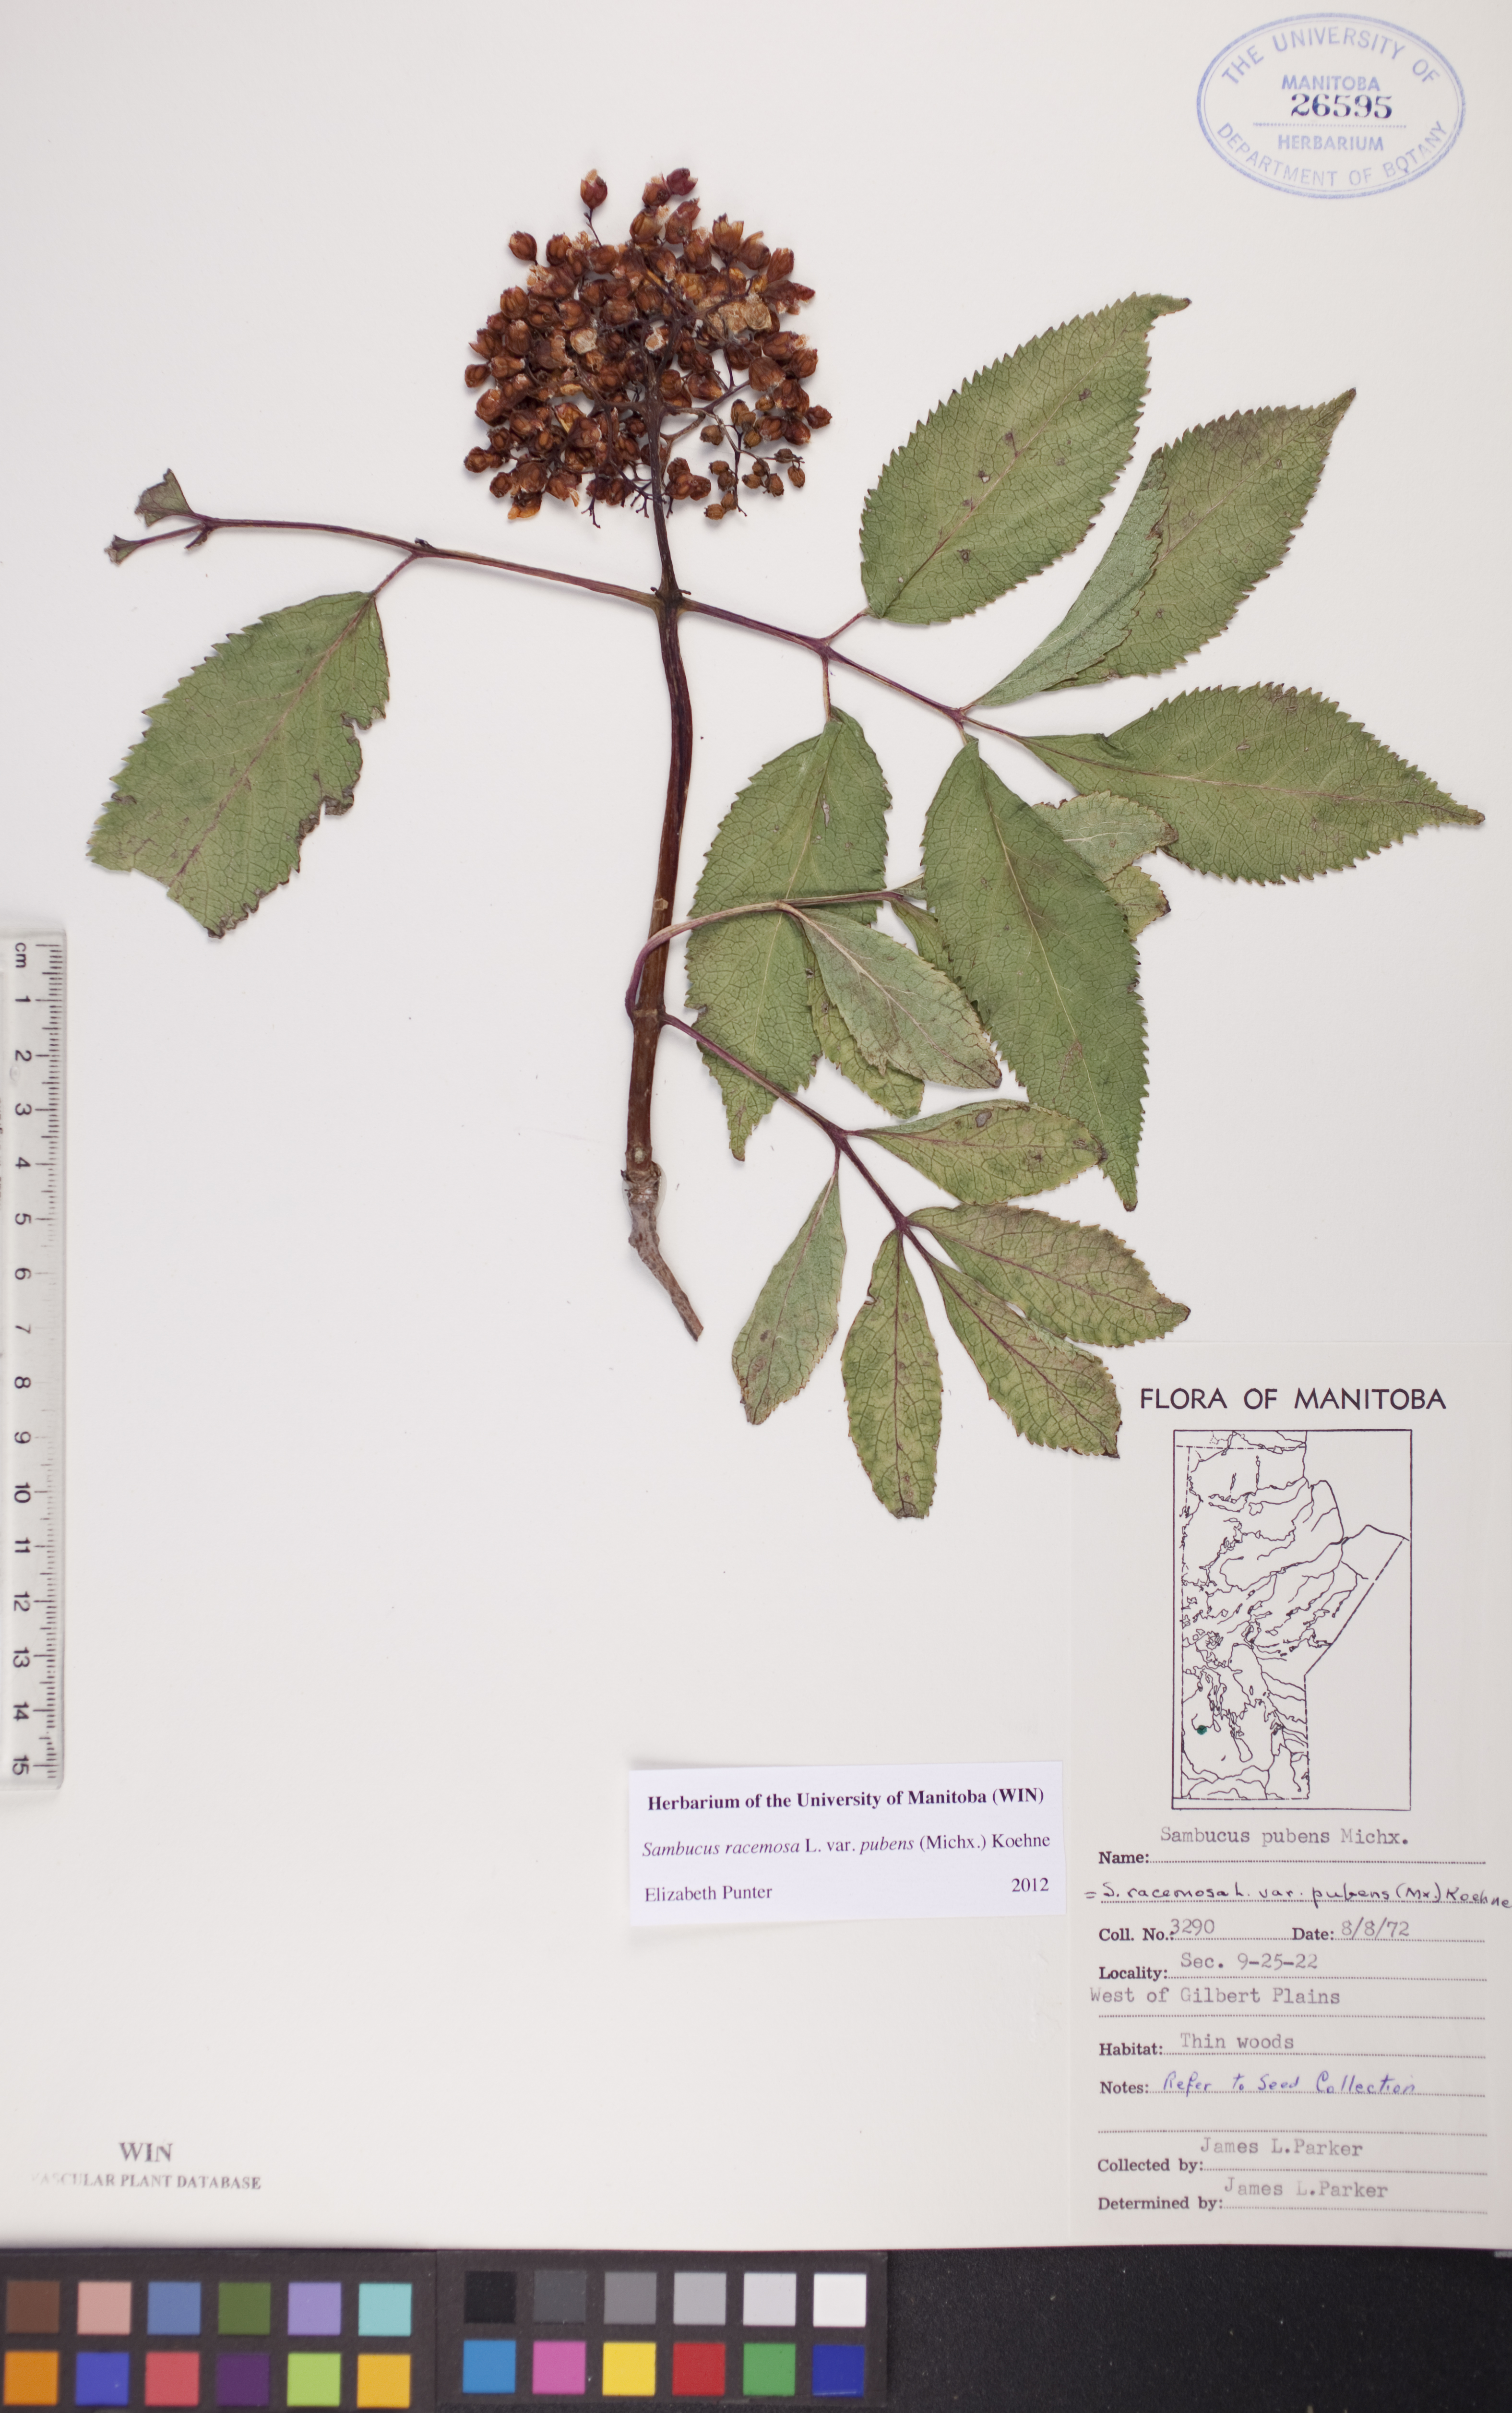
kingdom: Plantae
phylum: Tracheophyta
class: Magnoliopsida
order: Dipsacales
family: Viburnaceae
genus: Sambucus
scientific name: Sambucus racemosa
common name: Red-berried elder
